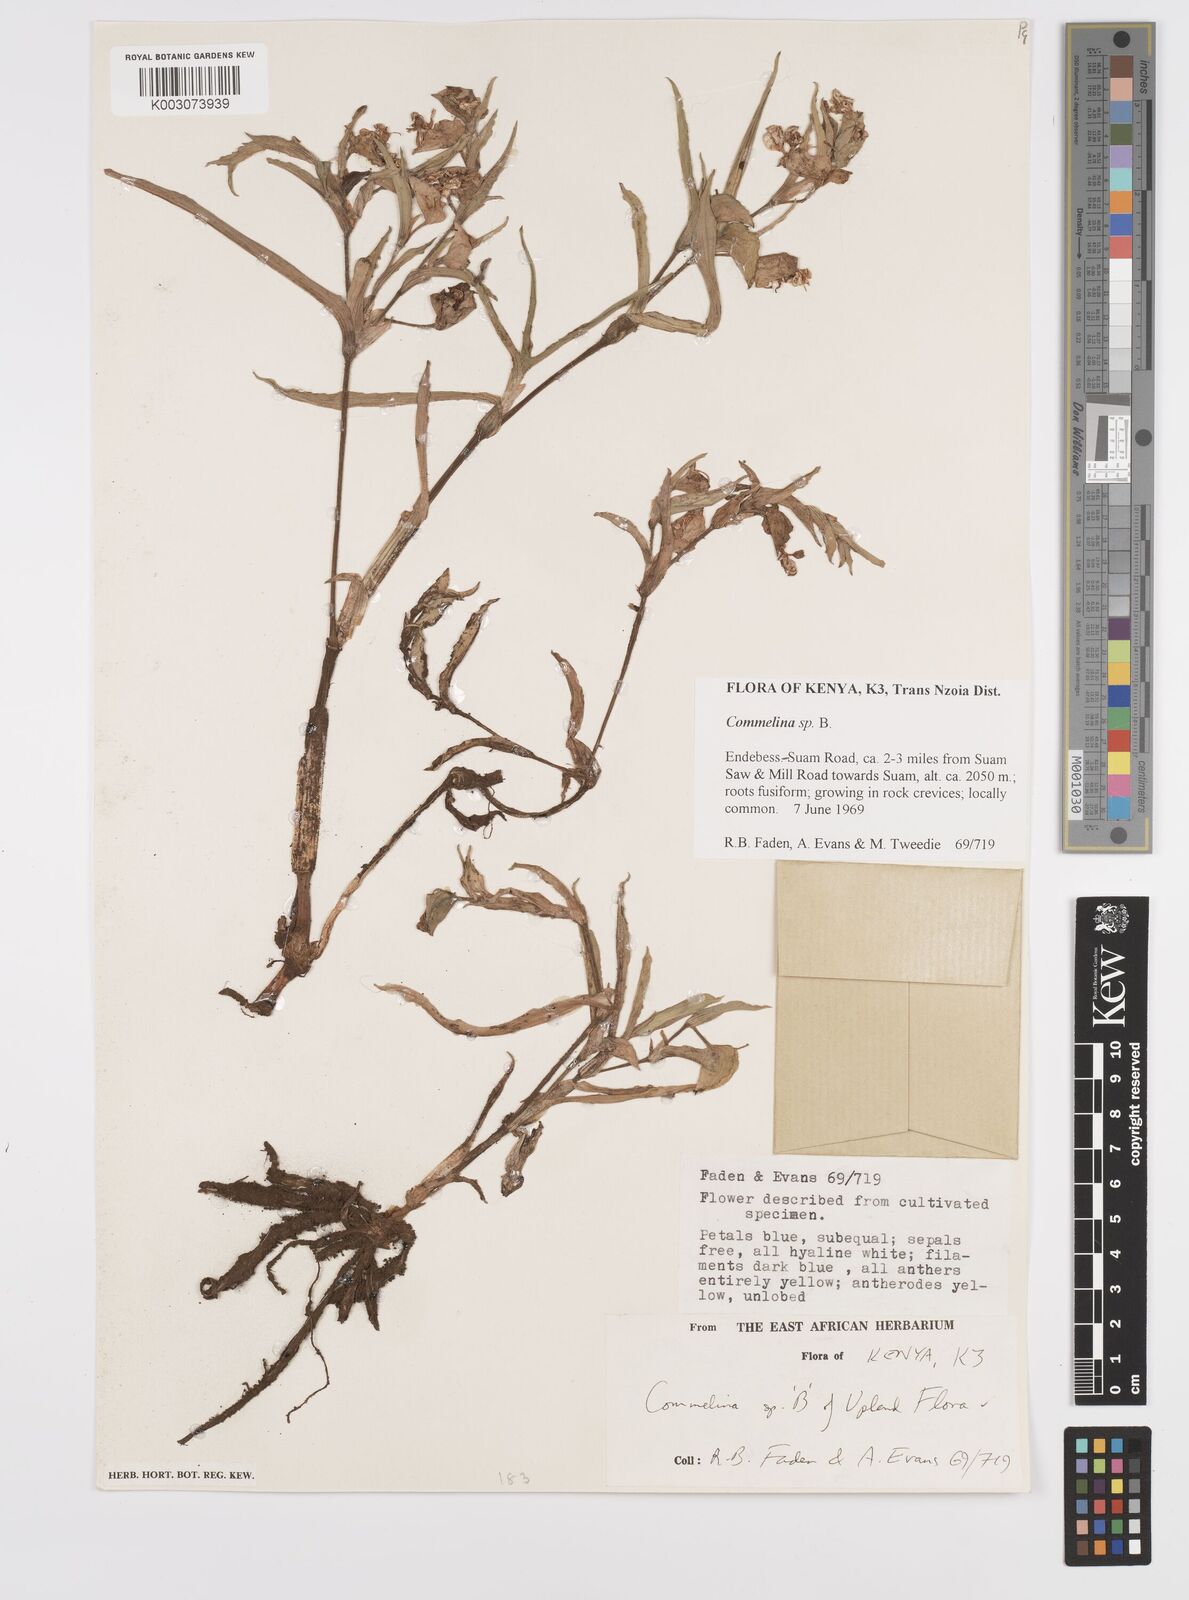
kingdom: Plantae
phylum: Tracheophyta
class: Liliopsida
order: Commelinales
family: Commelinaceae
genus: Commelina
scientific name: Commelina eckloniana
